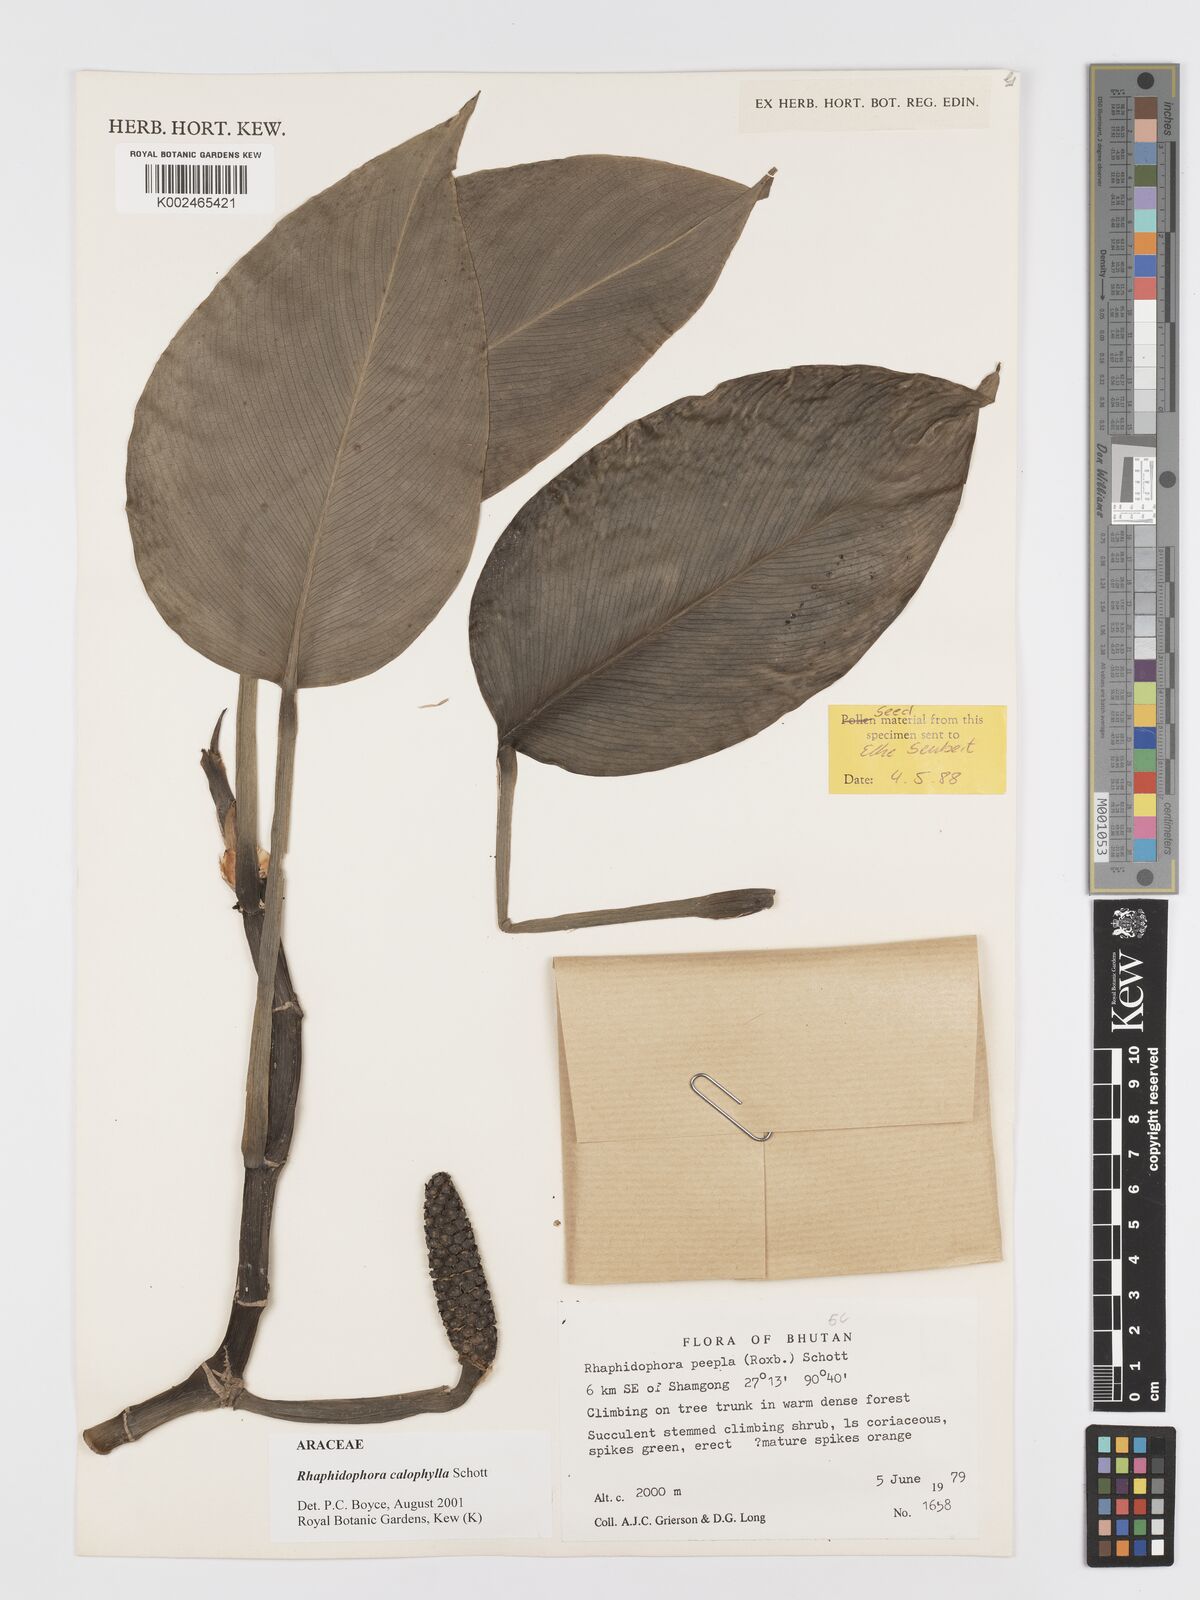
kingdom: Plantae
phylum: Tracheophyta
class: Liliopsida
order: Alismatales
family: Araceae
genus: Rhaphidophora
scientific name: Rhaphidophora calophylla
